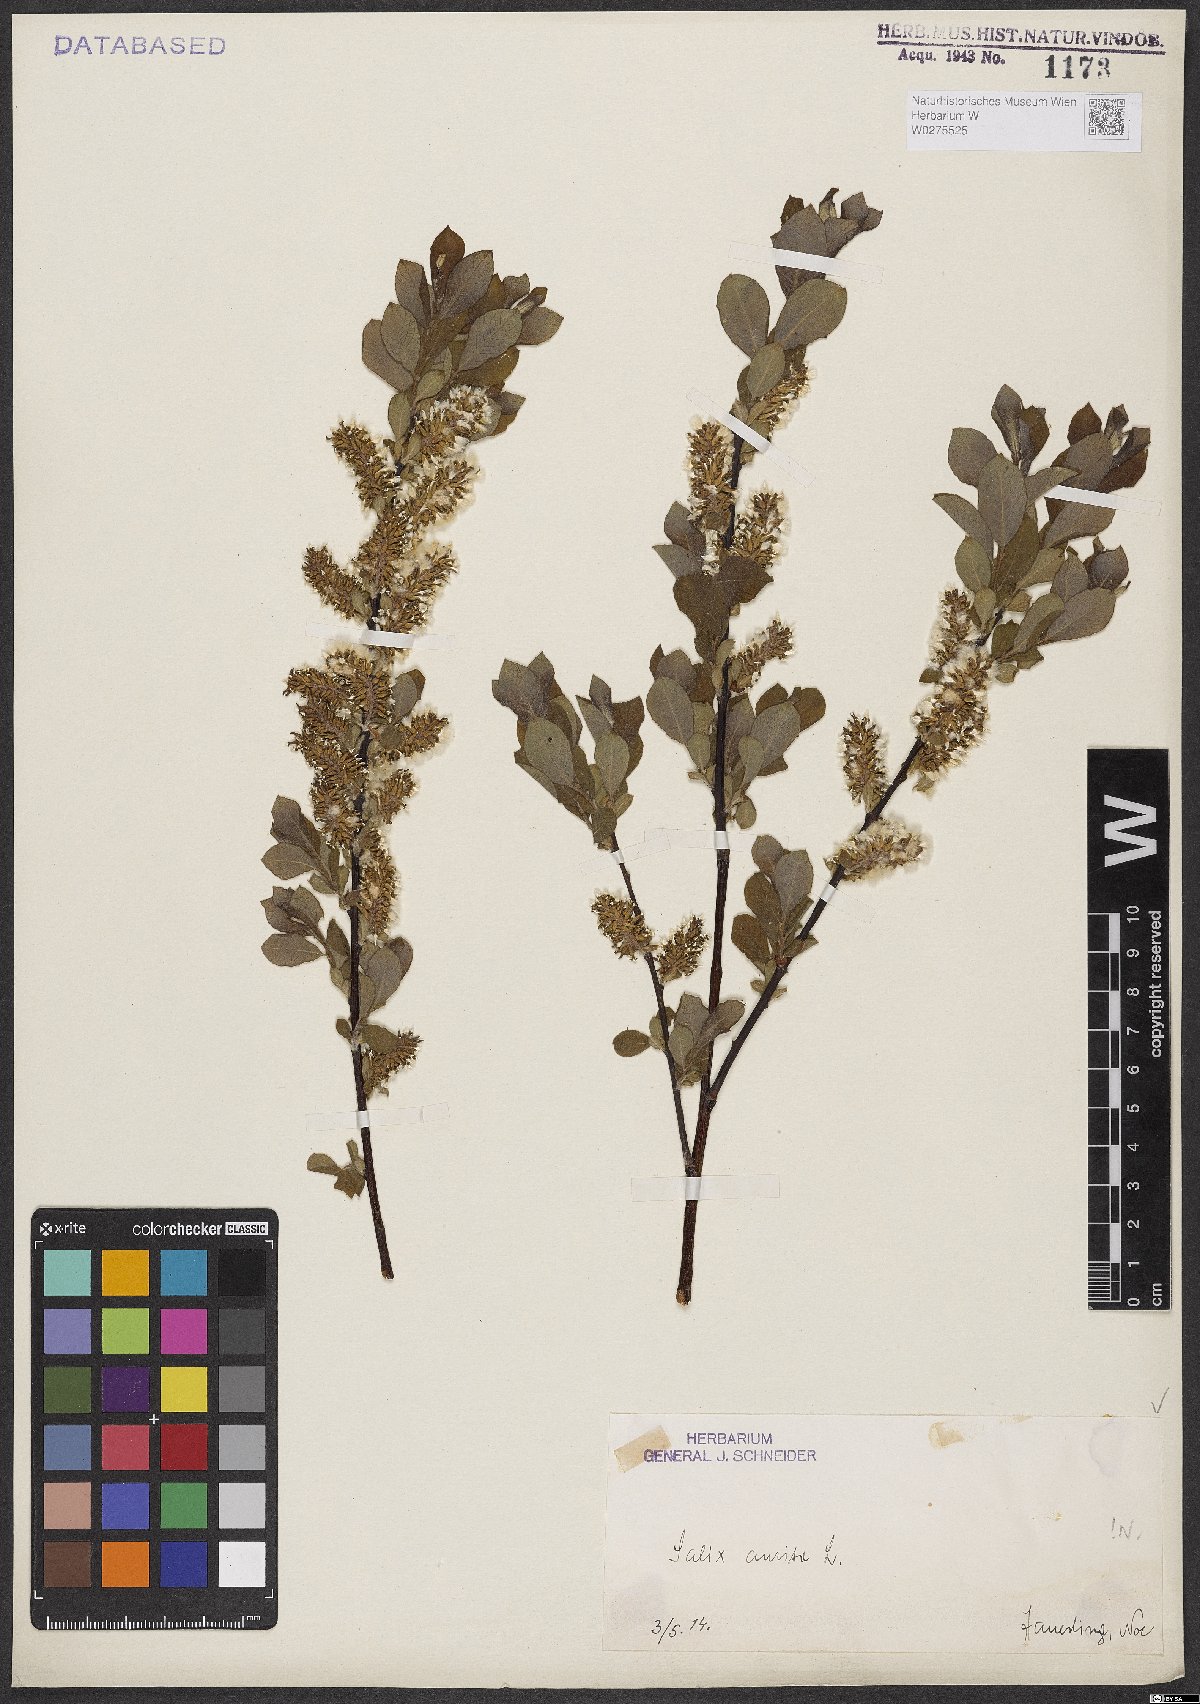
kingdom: Plantae
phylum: Tracheophyta
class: Magnoliopsida
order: Malpighiales
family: Salicaceae
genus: Salix
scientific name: Salix aurita
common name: Eared willow
